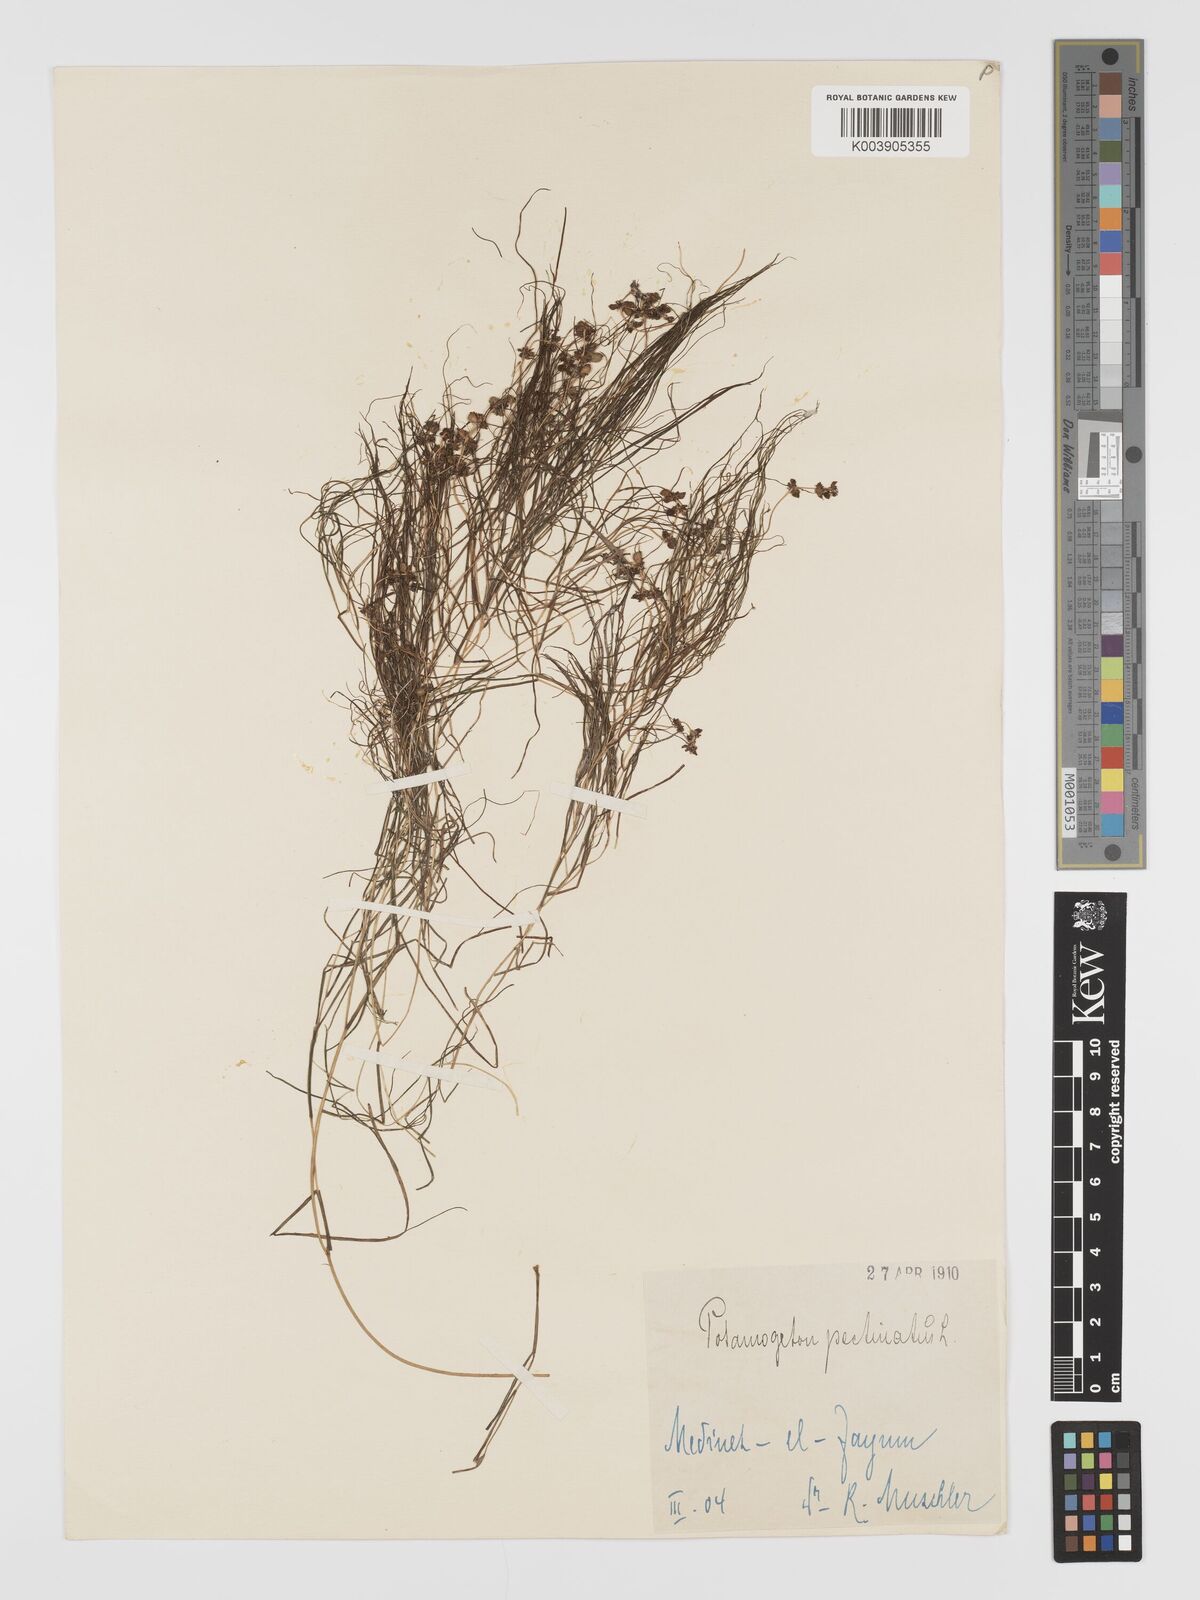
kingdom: Plantae
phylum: Tracheophyta
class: Liliopsida
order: Alismatales
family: Potamogetonaceae
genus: Stuckenia
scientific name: Stuckenia pectinata
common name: Sago pondweed
